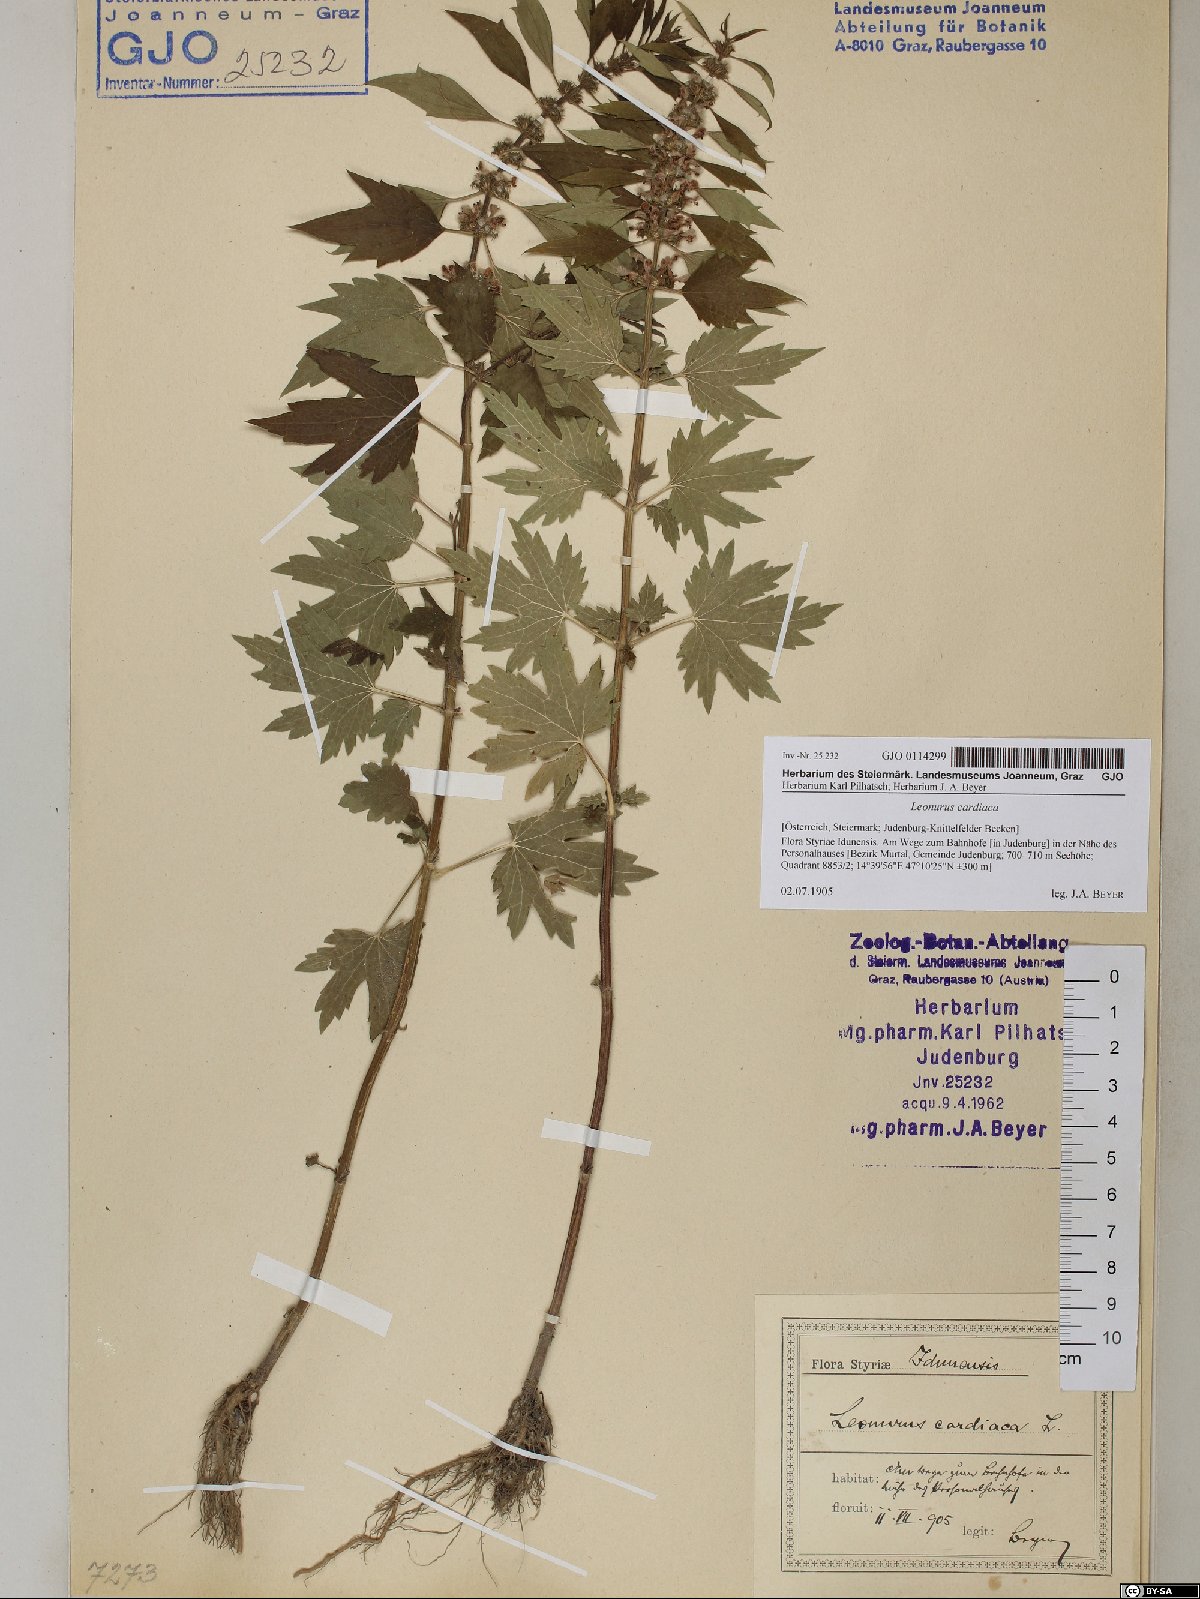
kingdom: Plantae
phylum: Tracheophyta
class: Magnoliopsida
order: Lamiales
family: Lamiaceae
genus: Leonurus
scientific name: Leonurus cardiaca
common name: Motherwort
